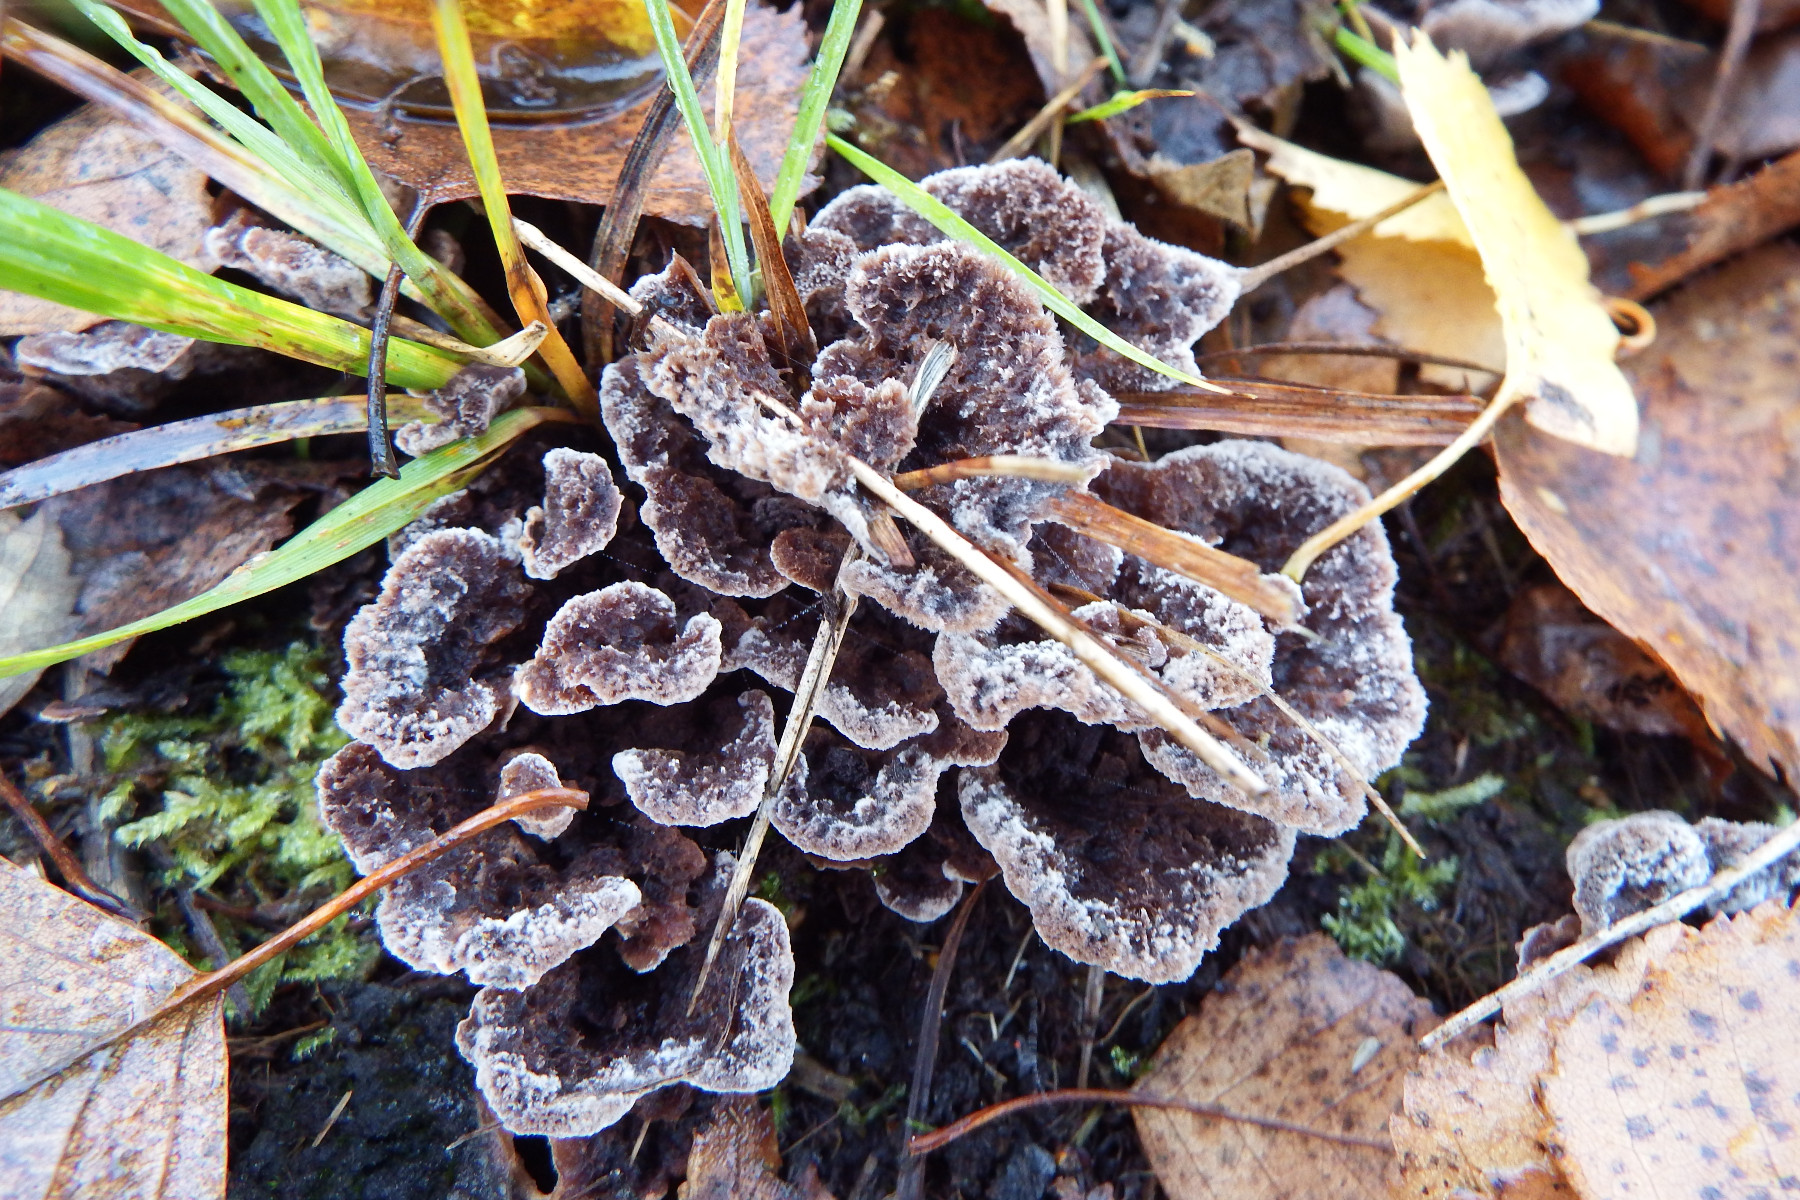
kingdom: Fungi
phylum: Basidiomycota
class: Agaricomycetes
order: Thelephorales
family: Thelephoraceae
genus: Thelephora
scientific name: Thelephora terrestris
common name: fliget frynsesvamp
